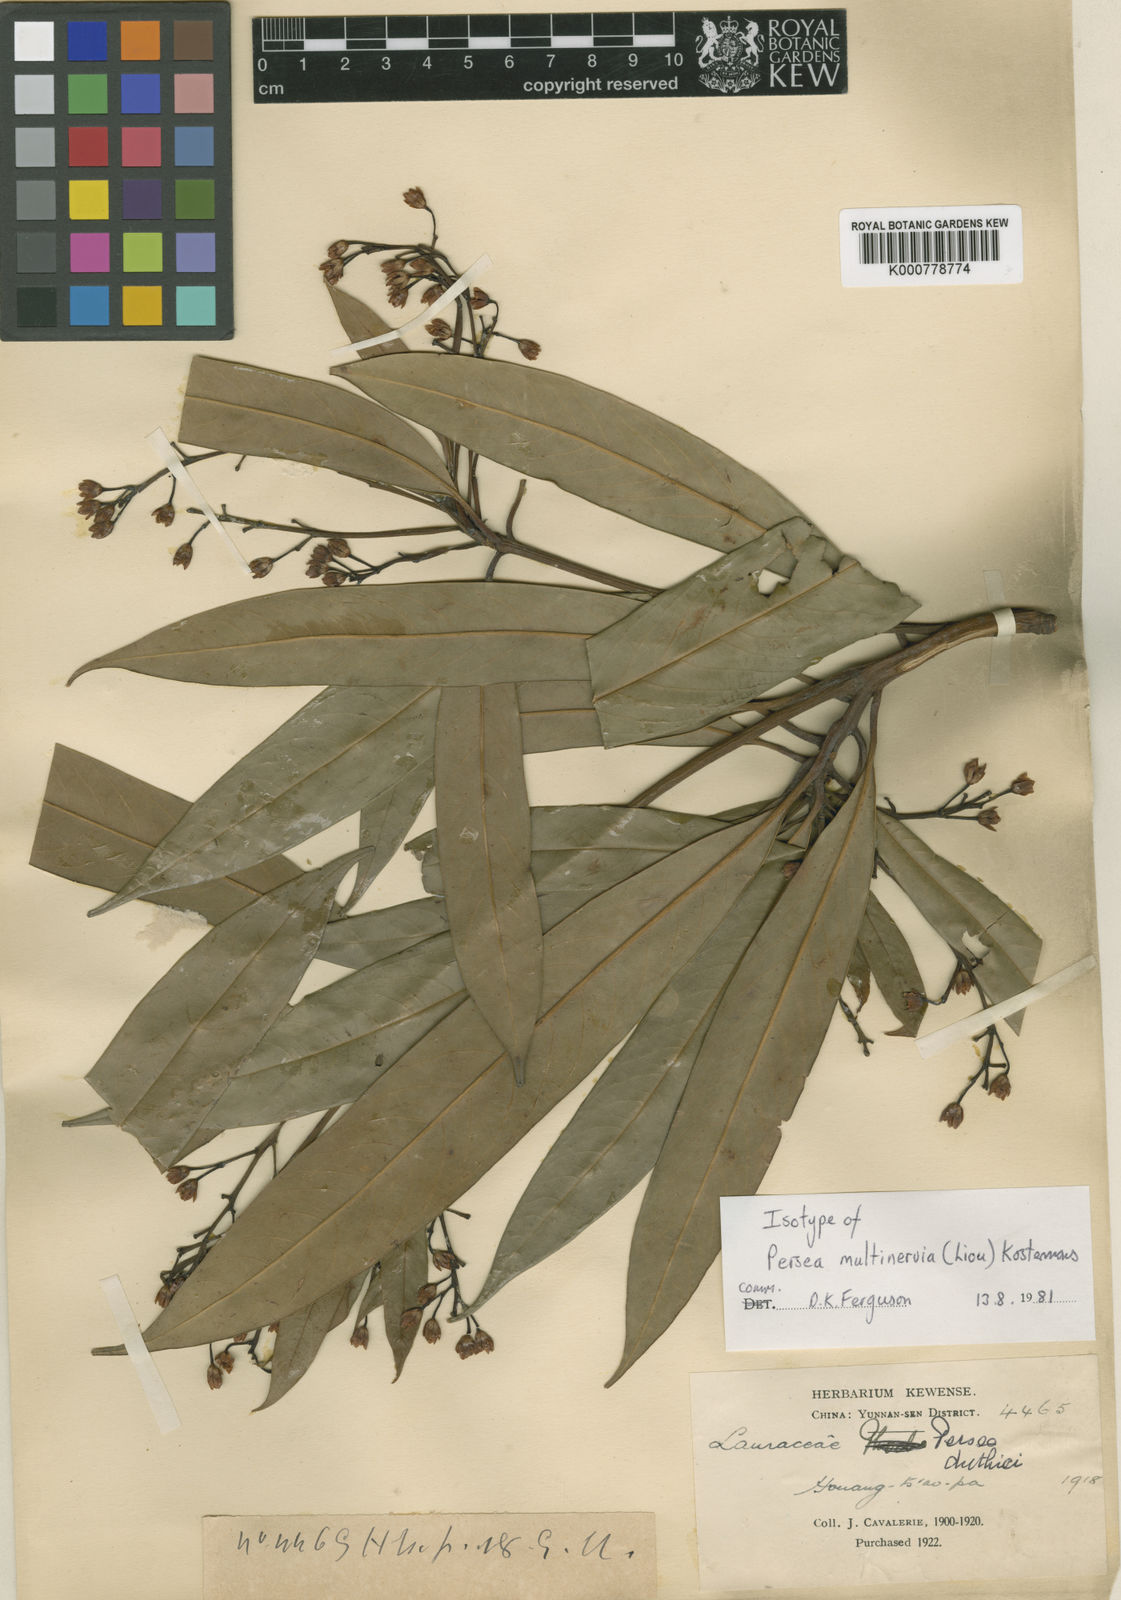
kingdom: Plantae
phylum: Tracheophyta
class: Magnoliopsida
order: Laurales
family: Lauraceae
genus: Persea
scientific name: Persea
